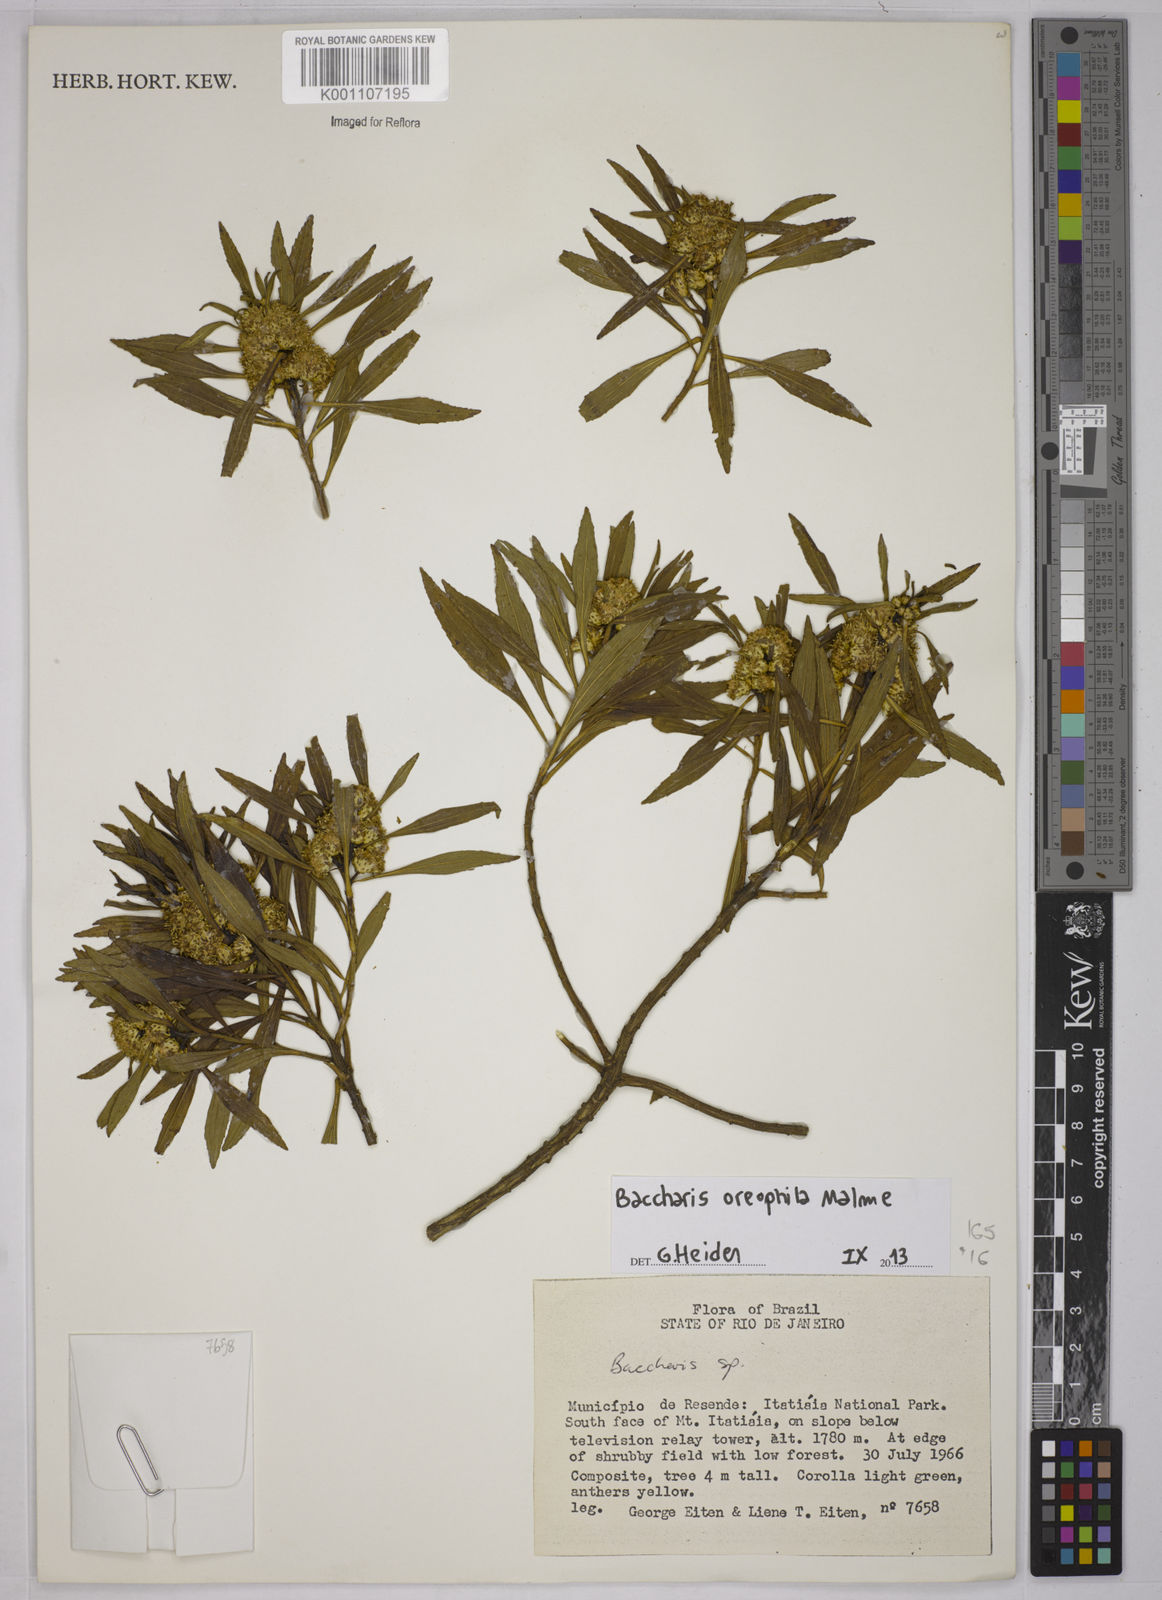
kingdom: Plantae
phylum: Tracheophyta
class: Magnoliopsida
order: Asterales
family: Asteraceae
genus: Baccharis
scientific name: Baccharis oreophila
